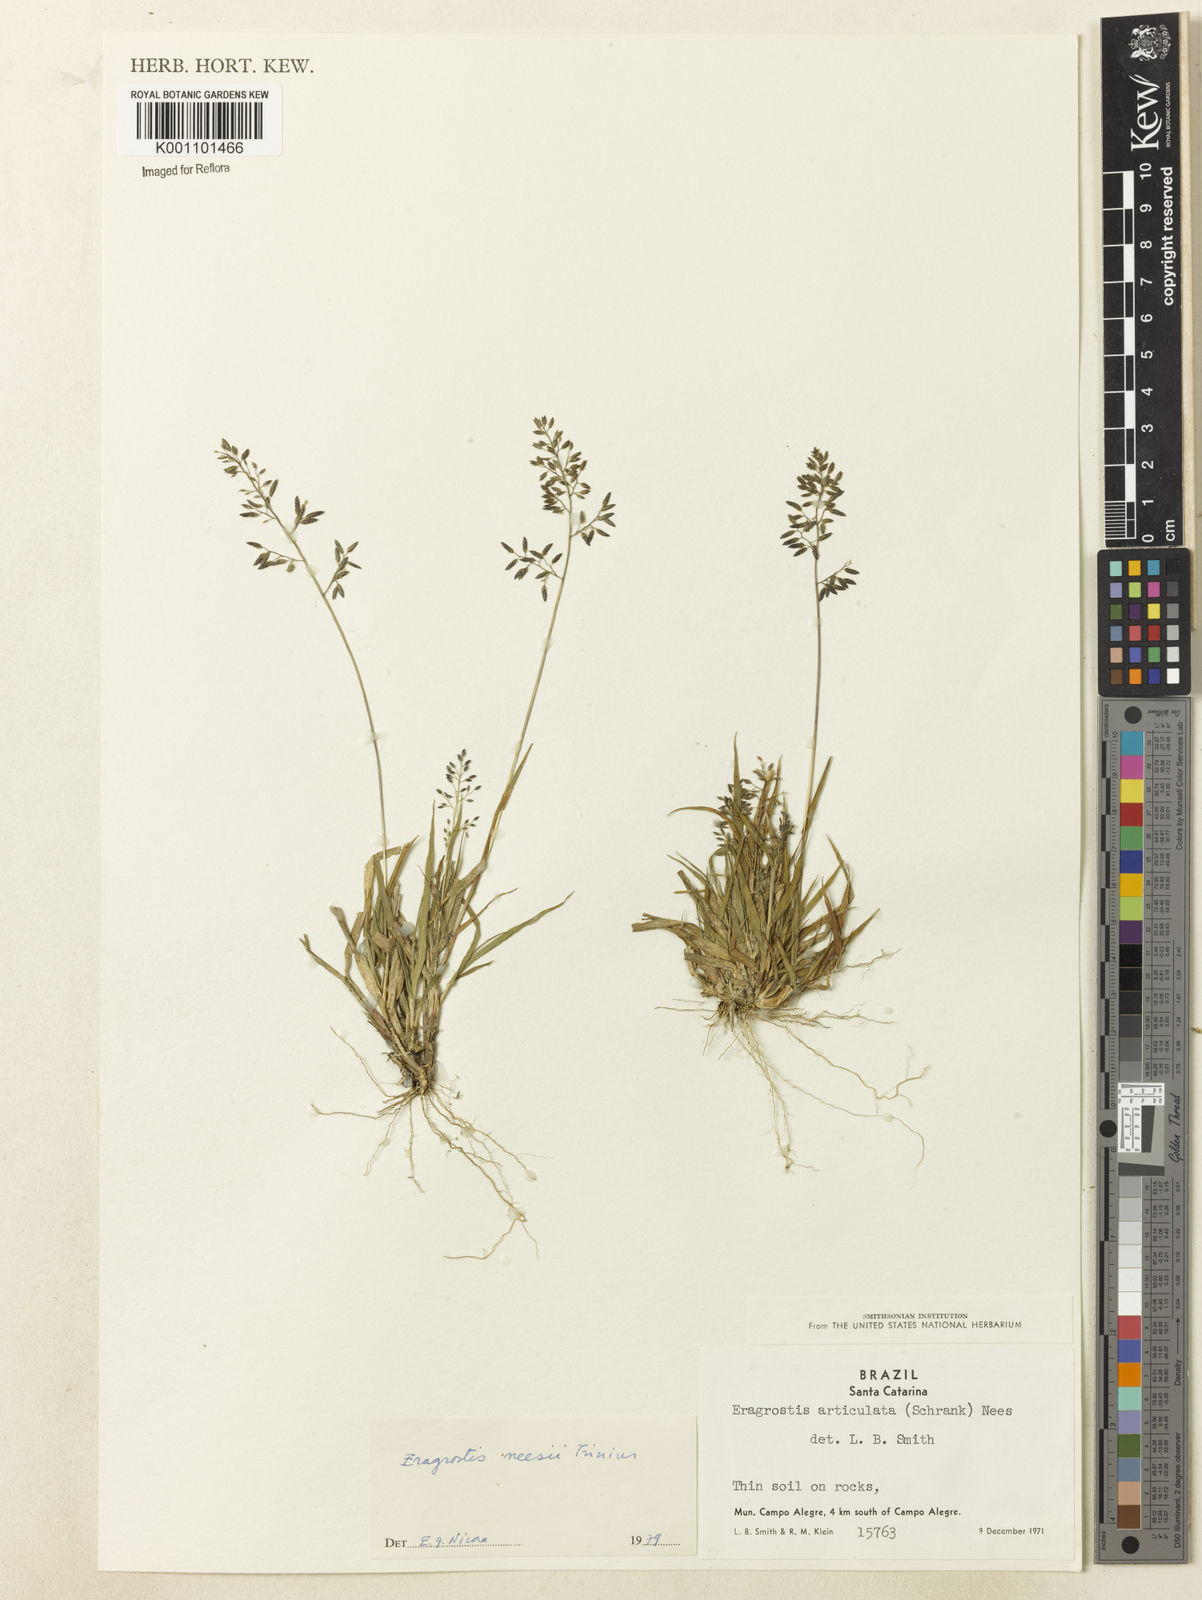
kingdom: Plantae
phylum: Tracheophyta
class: Liliopsida
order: Poales
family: Poaceae
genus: Eragrostis
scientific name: Eragrostis neesii
